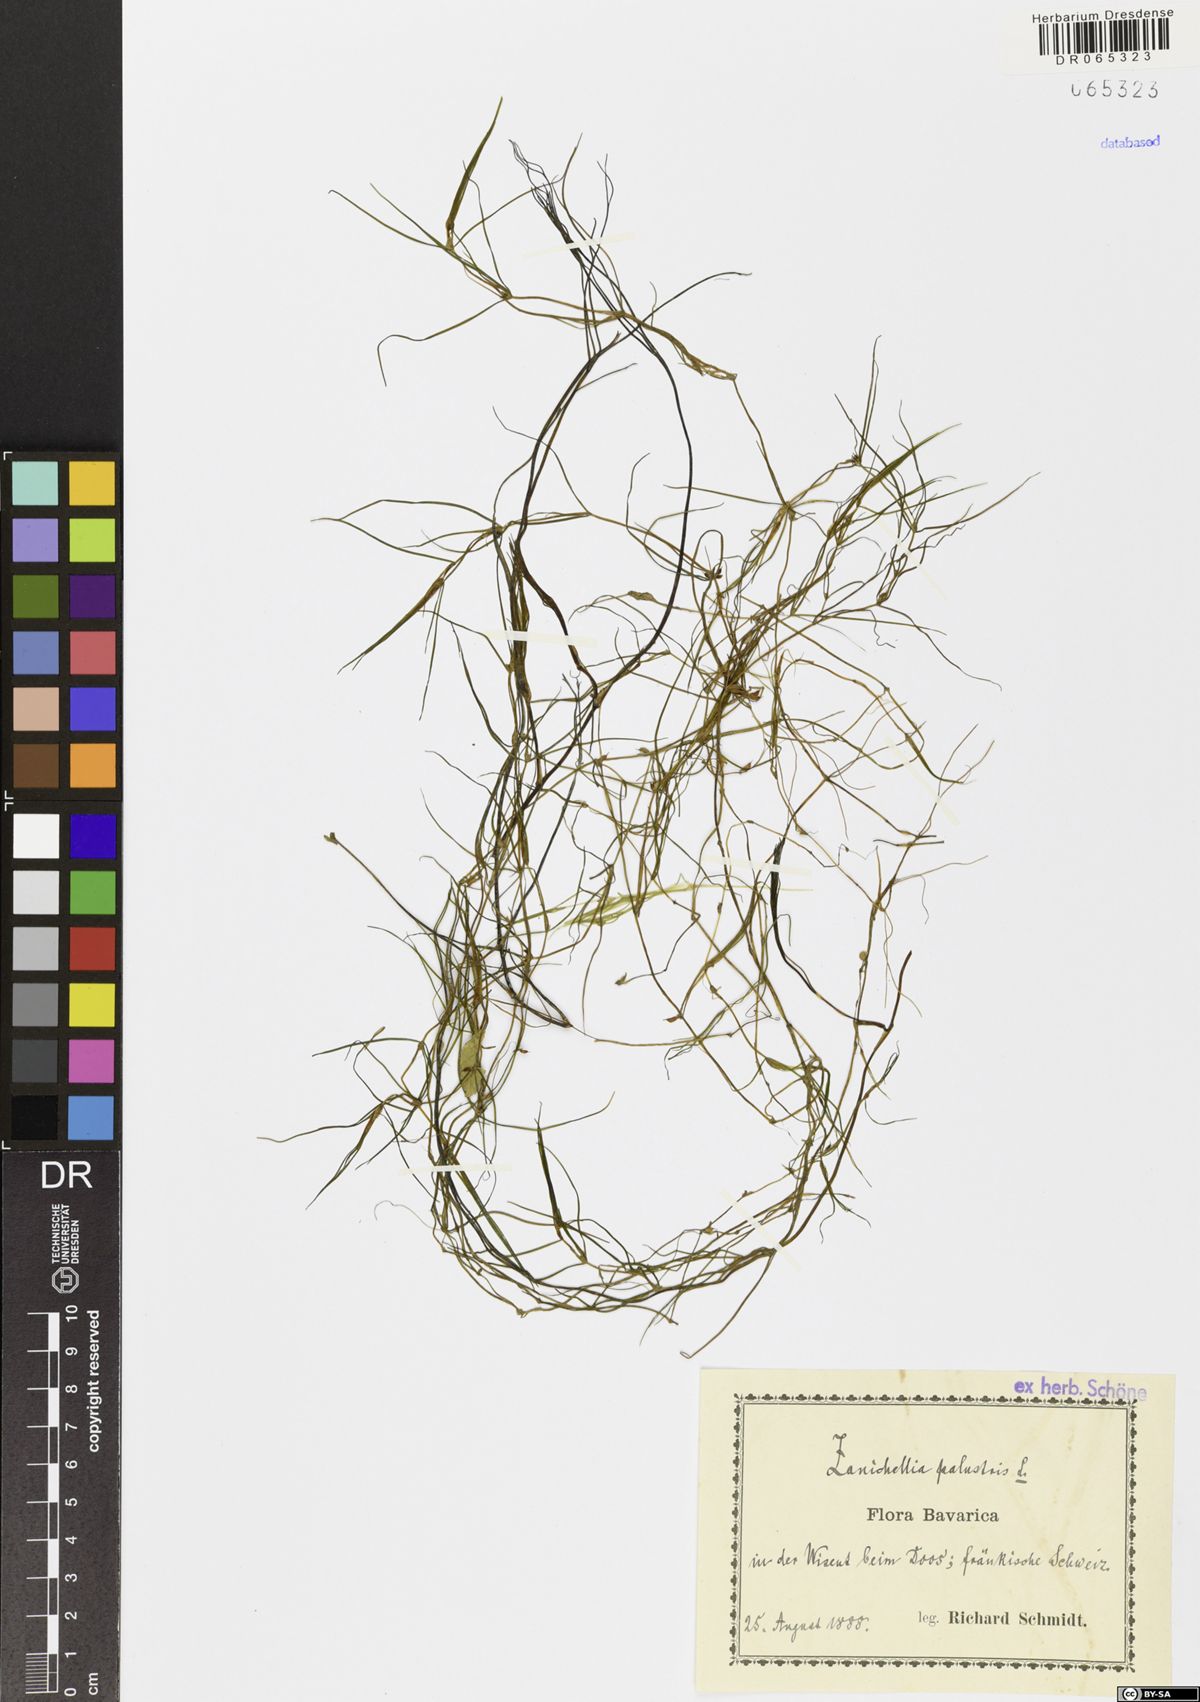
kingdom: Plantae
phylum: Tracheophyta
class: Liliopsida
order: Alismatales
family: Potamogetonaceae
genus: Zannichellia
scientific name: Zannichellia palustris
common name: Horned pondweed
